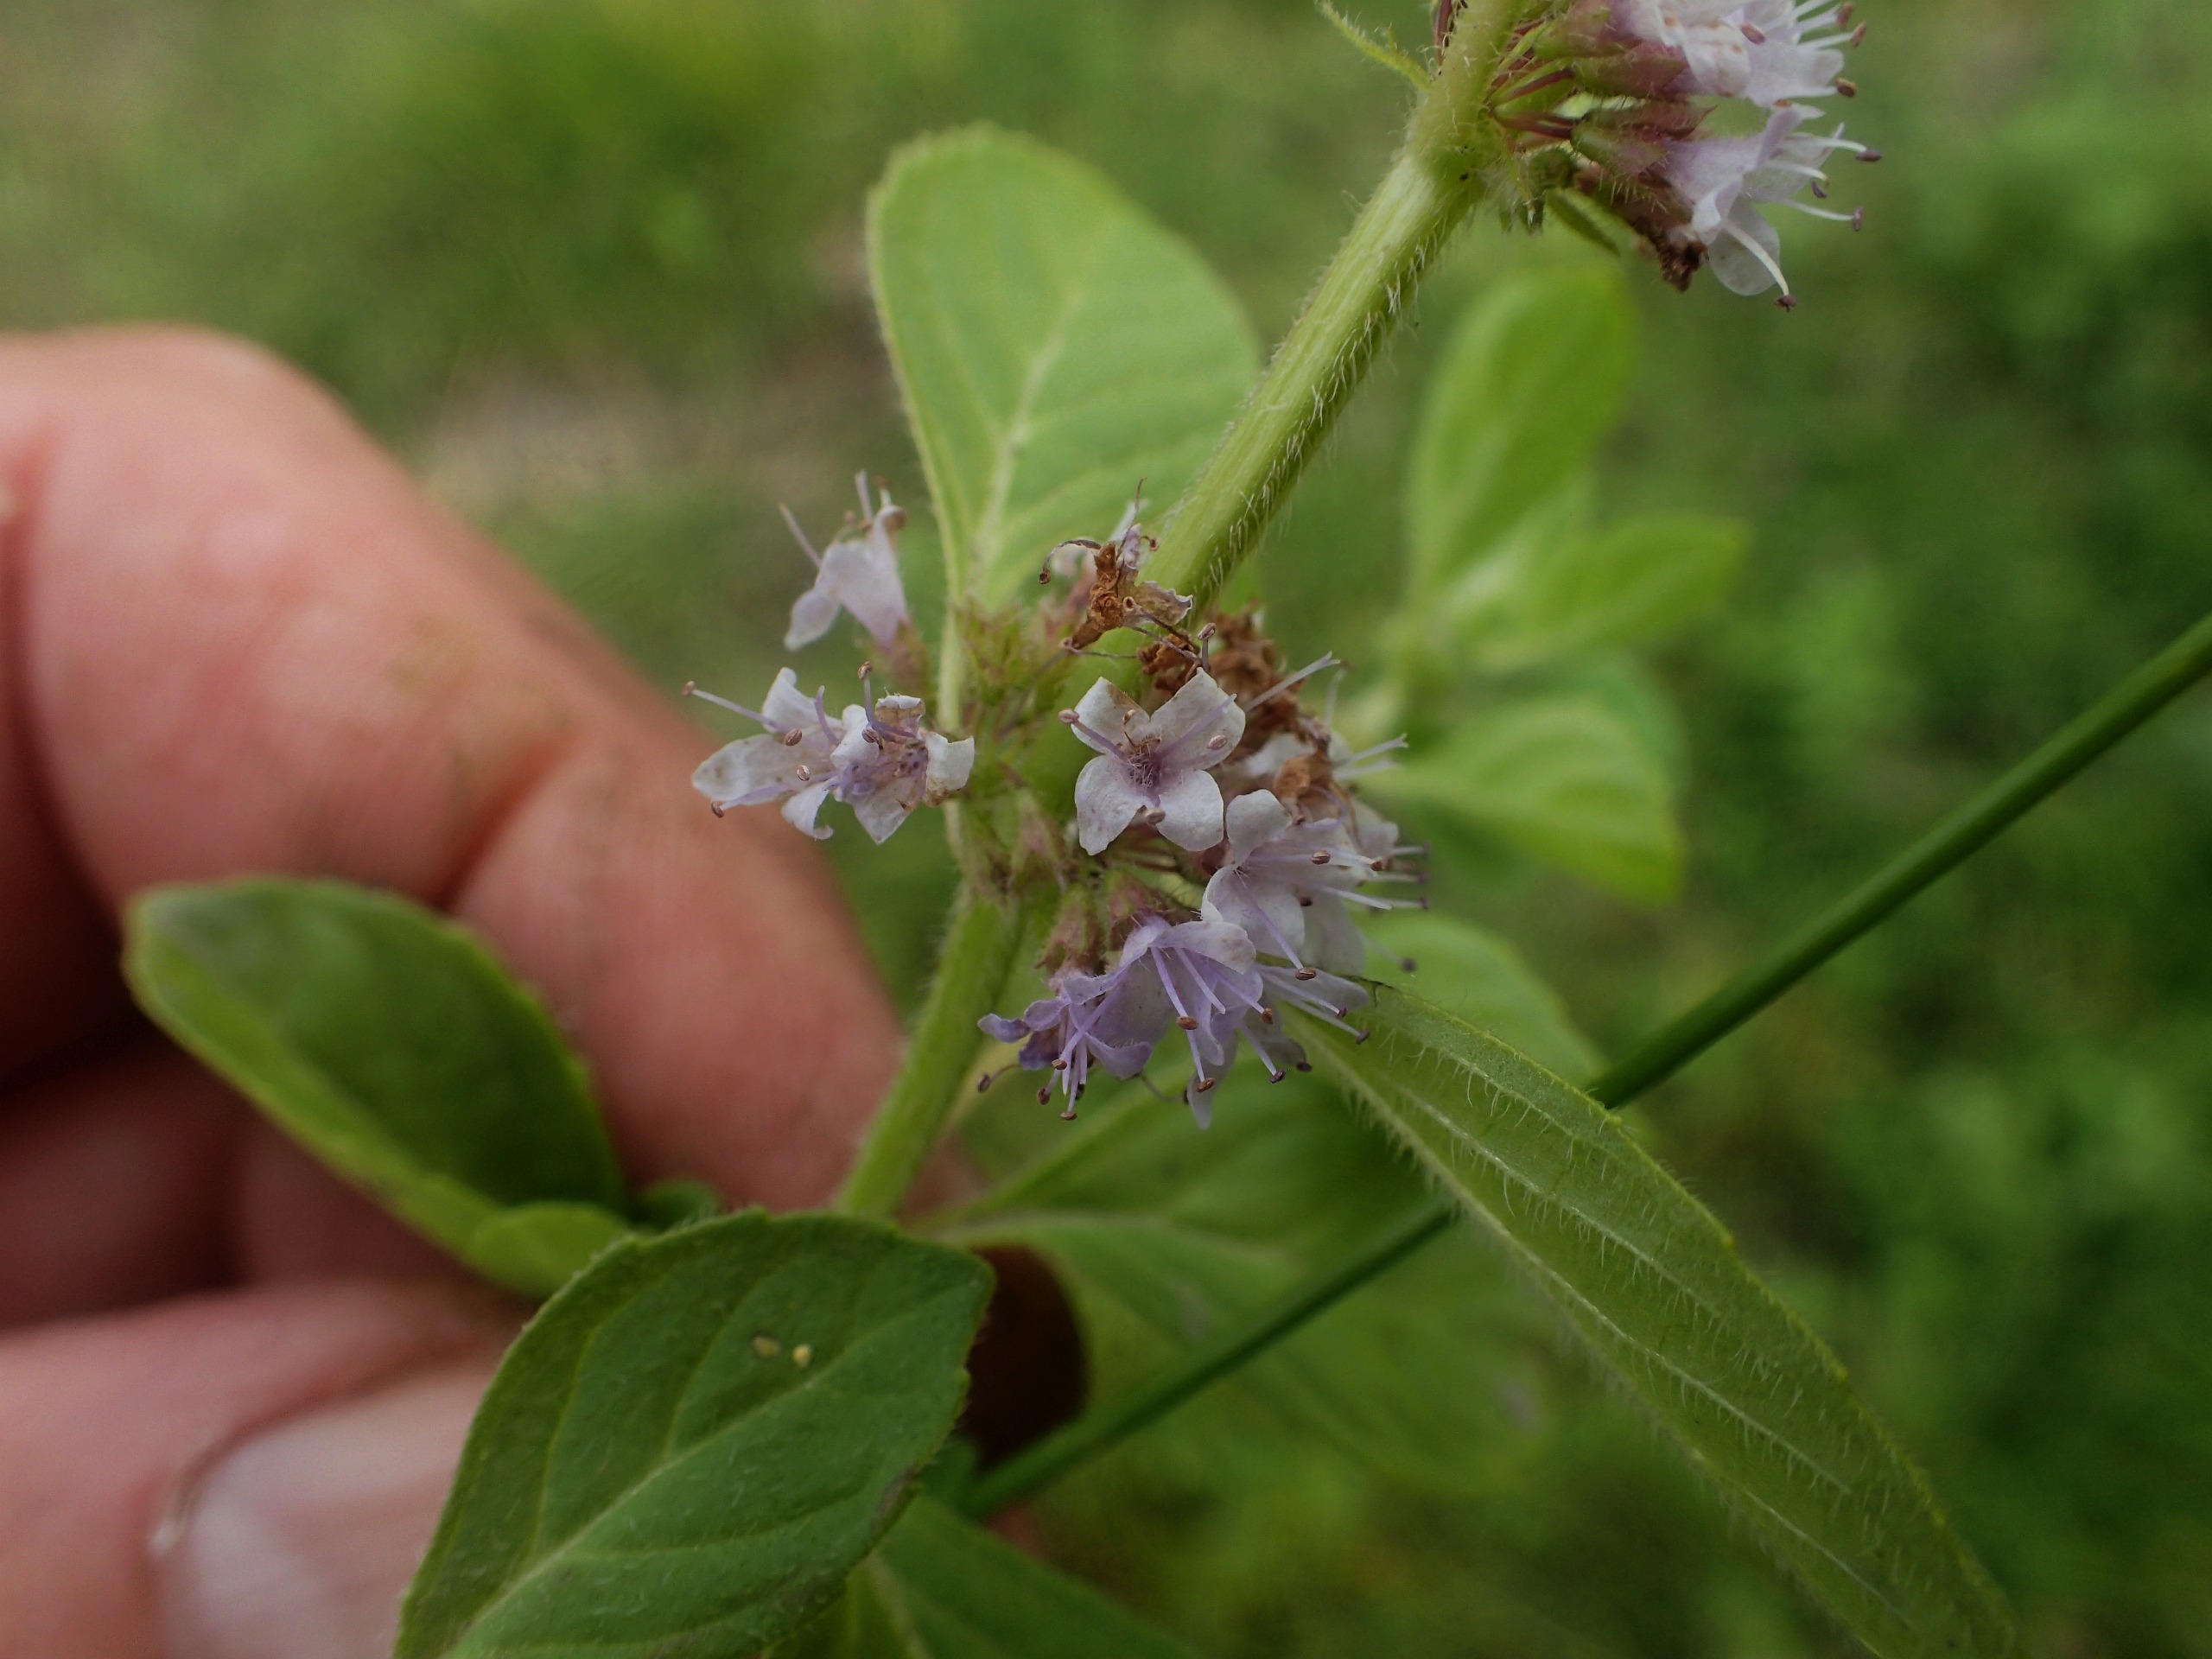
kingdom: Plantae
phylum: Tracheophyta
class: Magnoliopsida
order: Lamiales
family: Lamiaceae
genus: Mentha
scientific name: Mentha arvensis
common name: Ager-mynte
